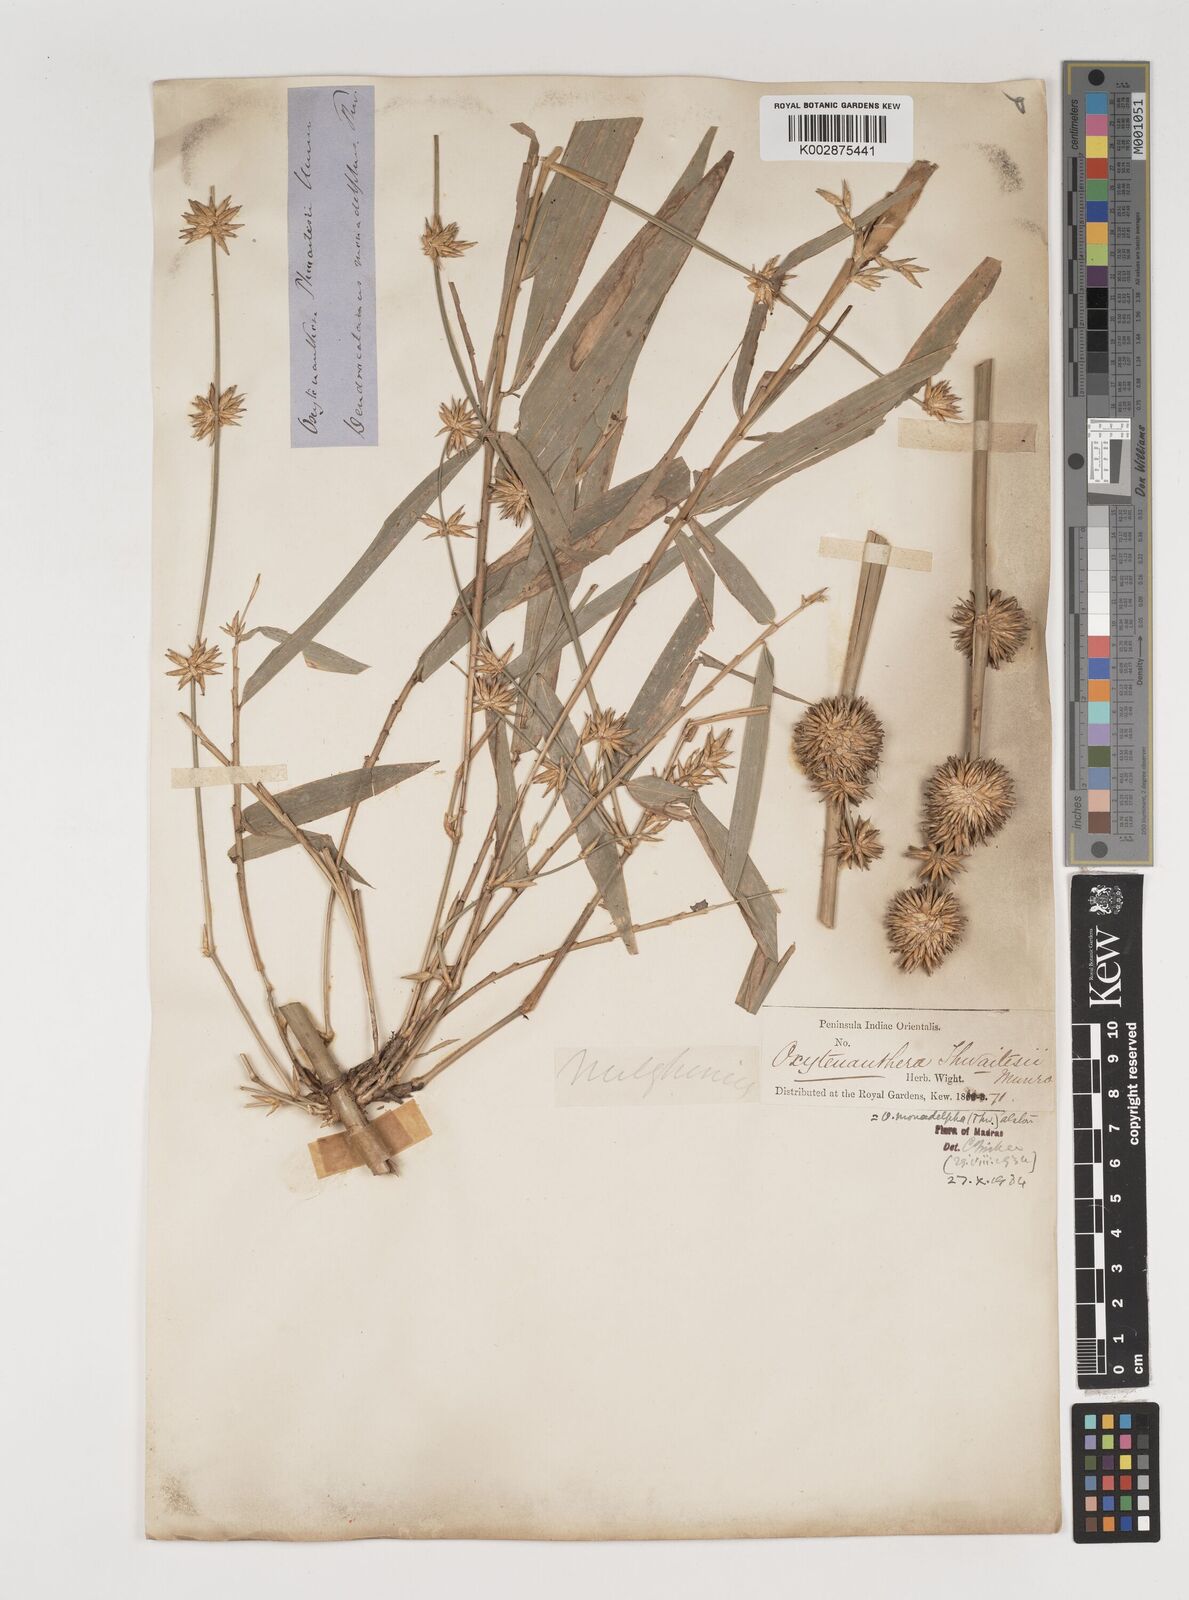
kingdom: Plantae
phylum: Tracheophyta
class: Liliopsida
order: Poales
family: Poaceae
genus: Pseudoxytenanthera
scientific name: Pseudoxytenanthera monadelpha
